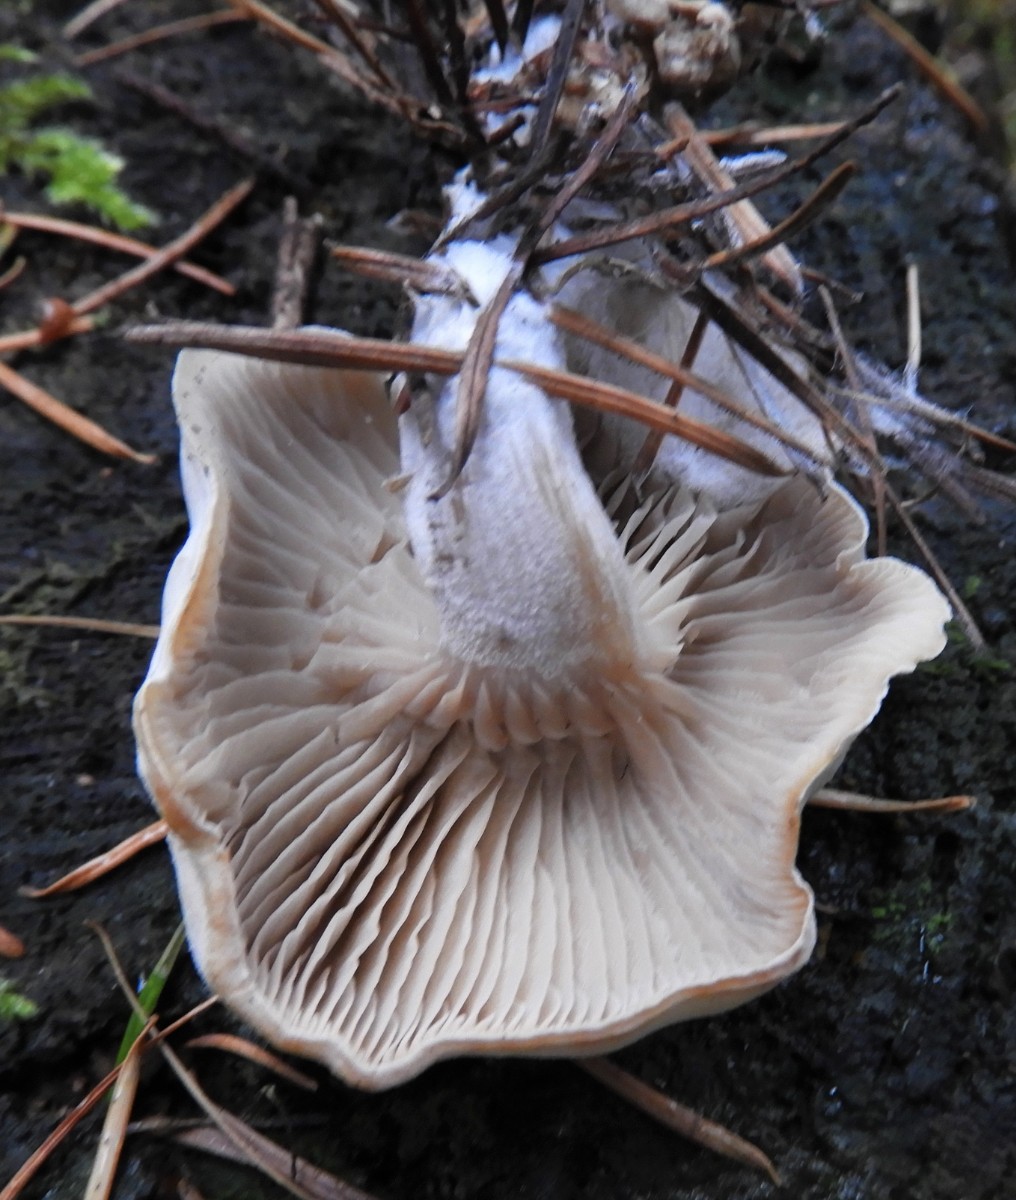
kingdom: Fungi
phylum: Basidiomycota
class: Agaricomycetes
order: Agaricales
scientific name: Agaricales
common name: champignonordenen
